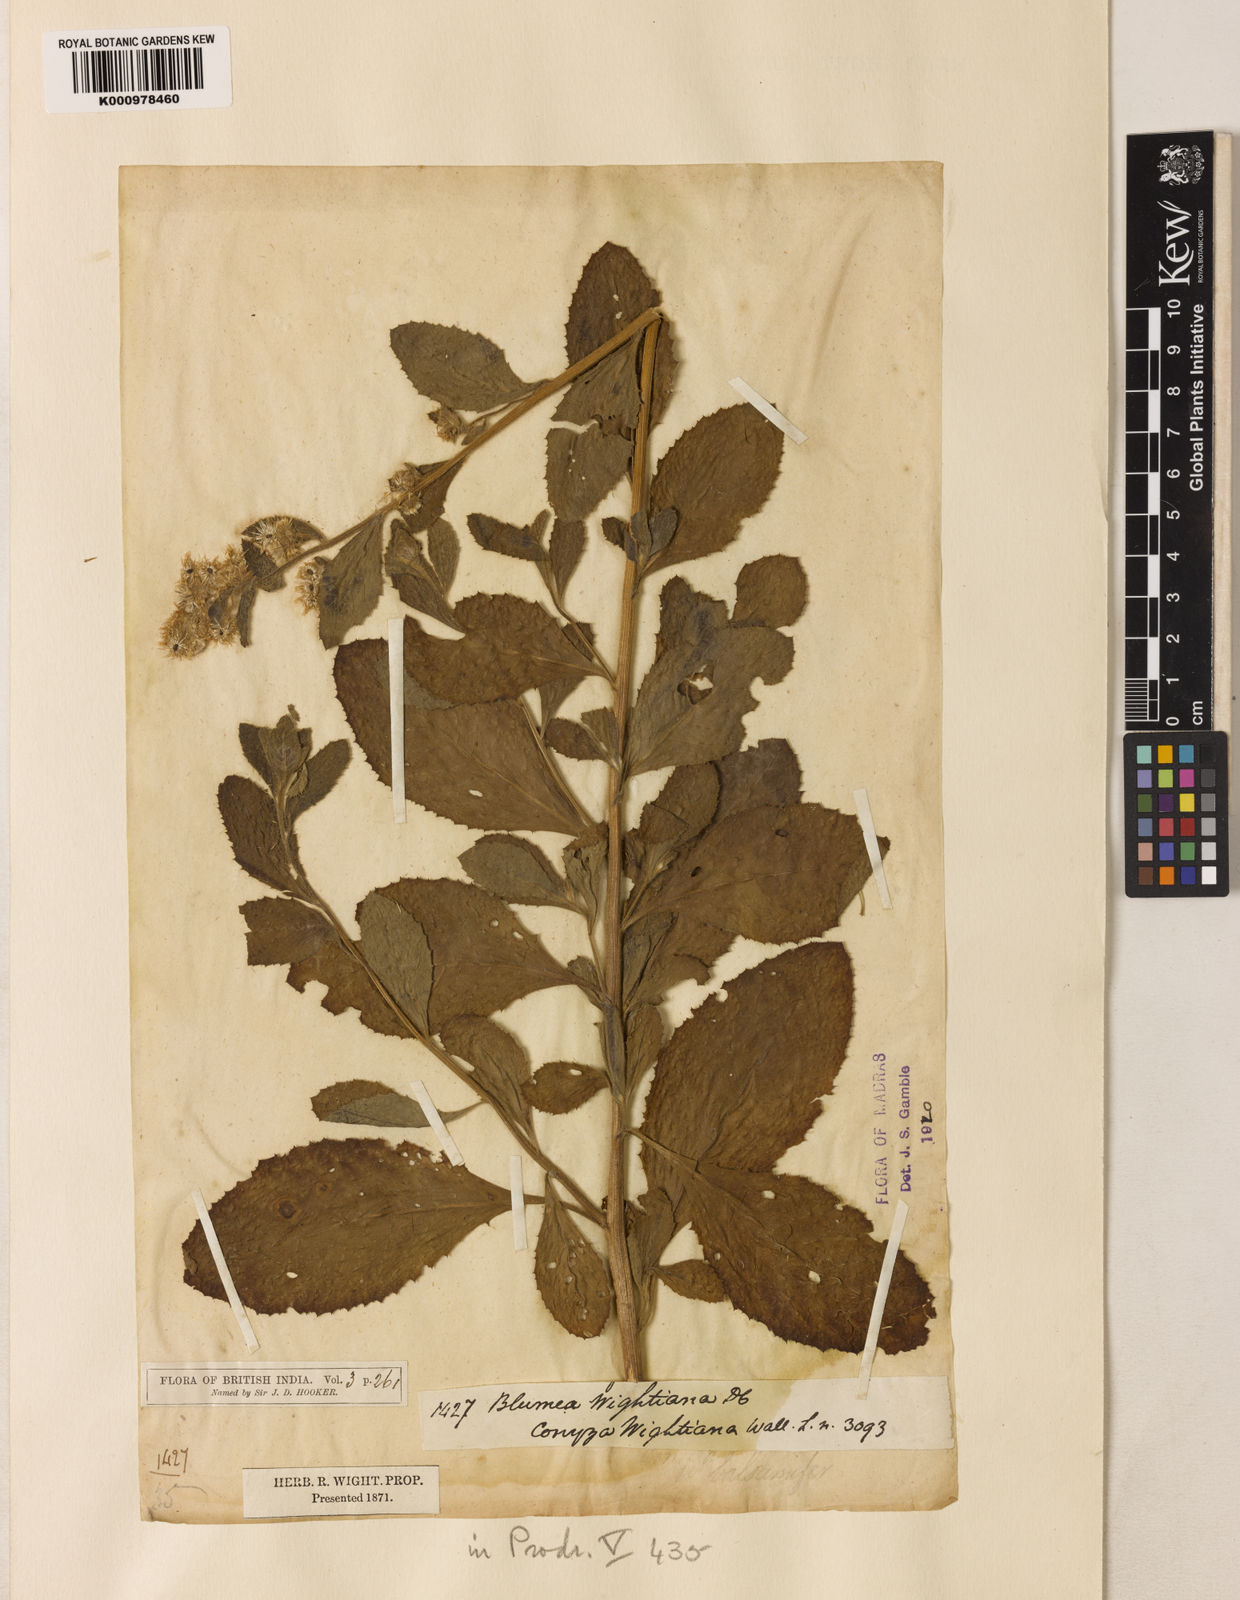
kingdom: Plantae
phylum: Tracheophyta
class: Magnoliopsida
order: Asterales
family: Asteraceae
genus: Blumea
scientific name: Blumea axillaris
